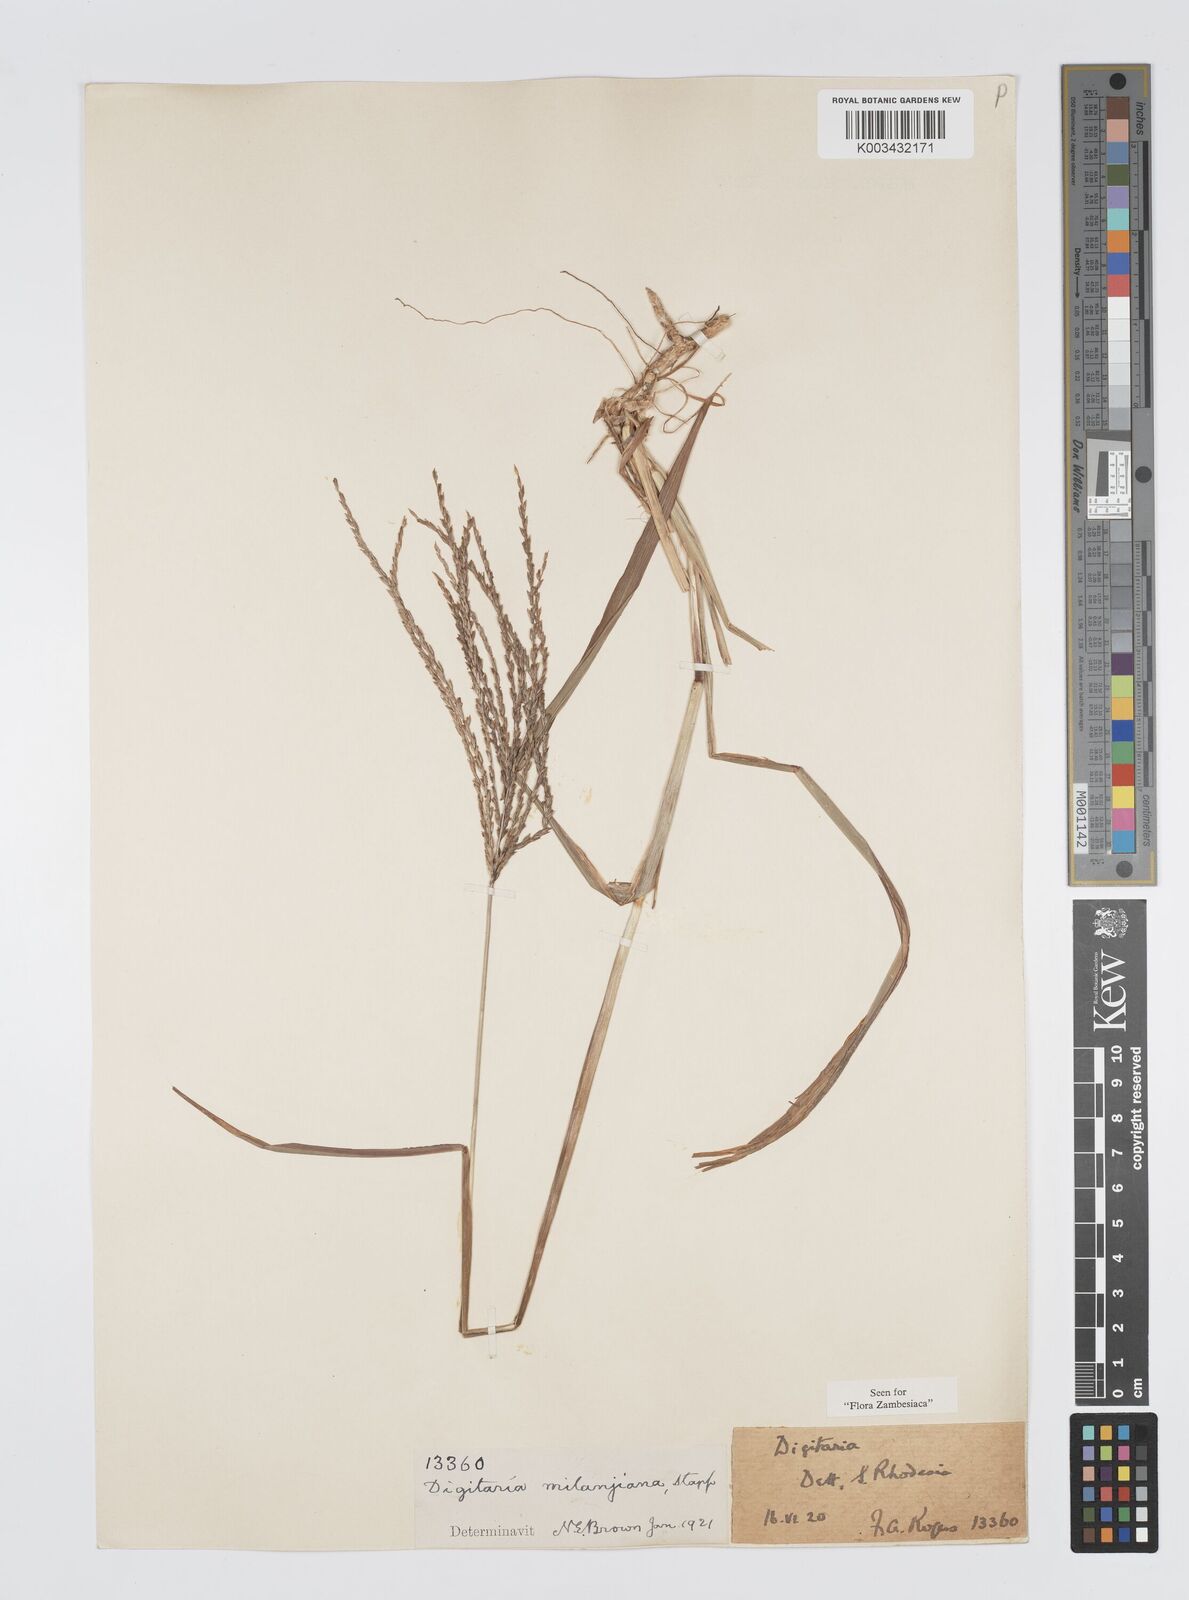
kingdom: Plantae
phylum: Tracheophyta
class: Liliopsida
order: Poales
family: Poaceae
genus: Digitaria
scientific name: Digitaria milanjiana
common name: Madagascar crabgrass
